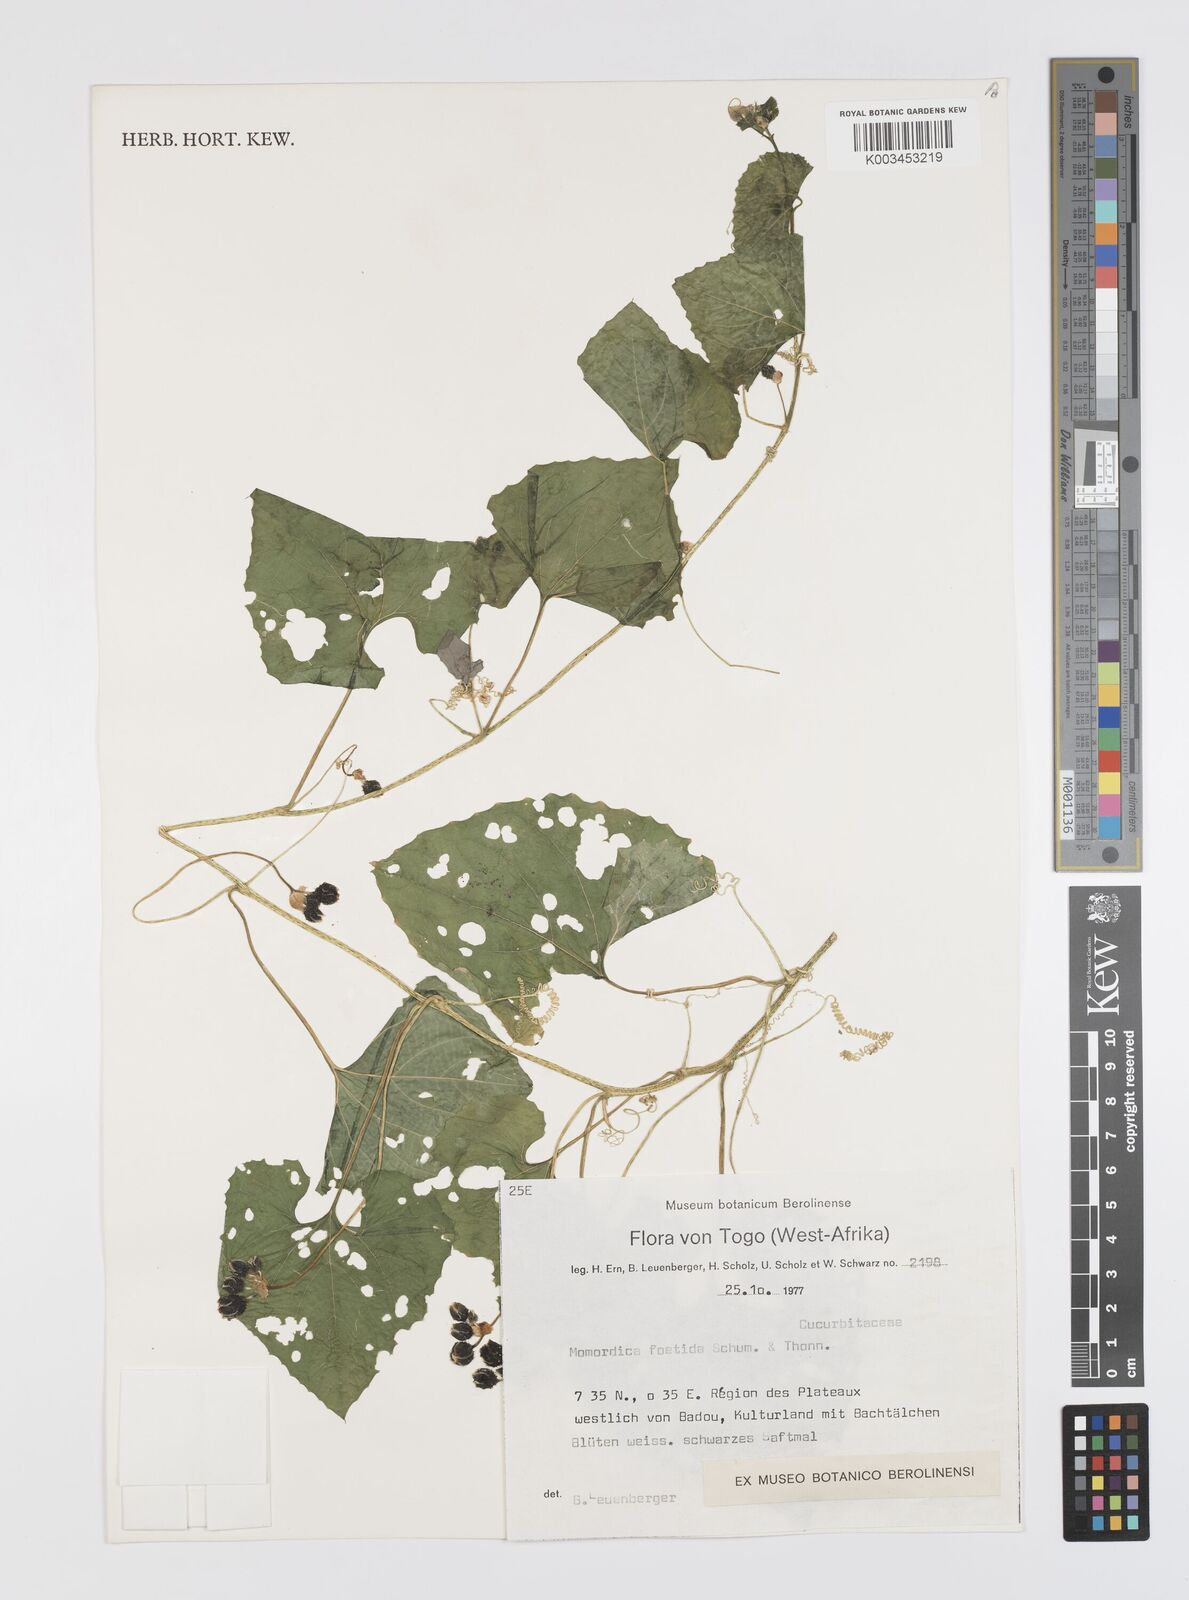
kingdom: Plantae
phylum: Tracheophyta
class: Magnoliopsida
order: Cucurbitales
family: Cucurbitaceae
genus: Momordica
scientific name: Momordica foetida
